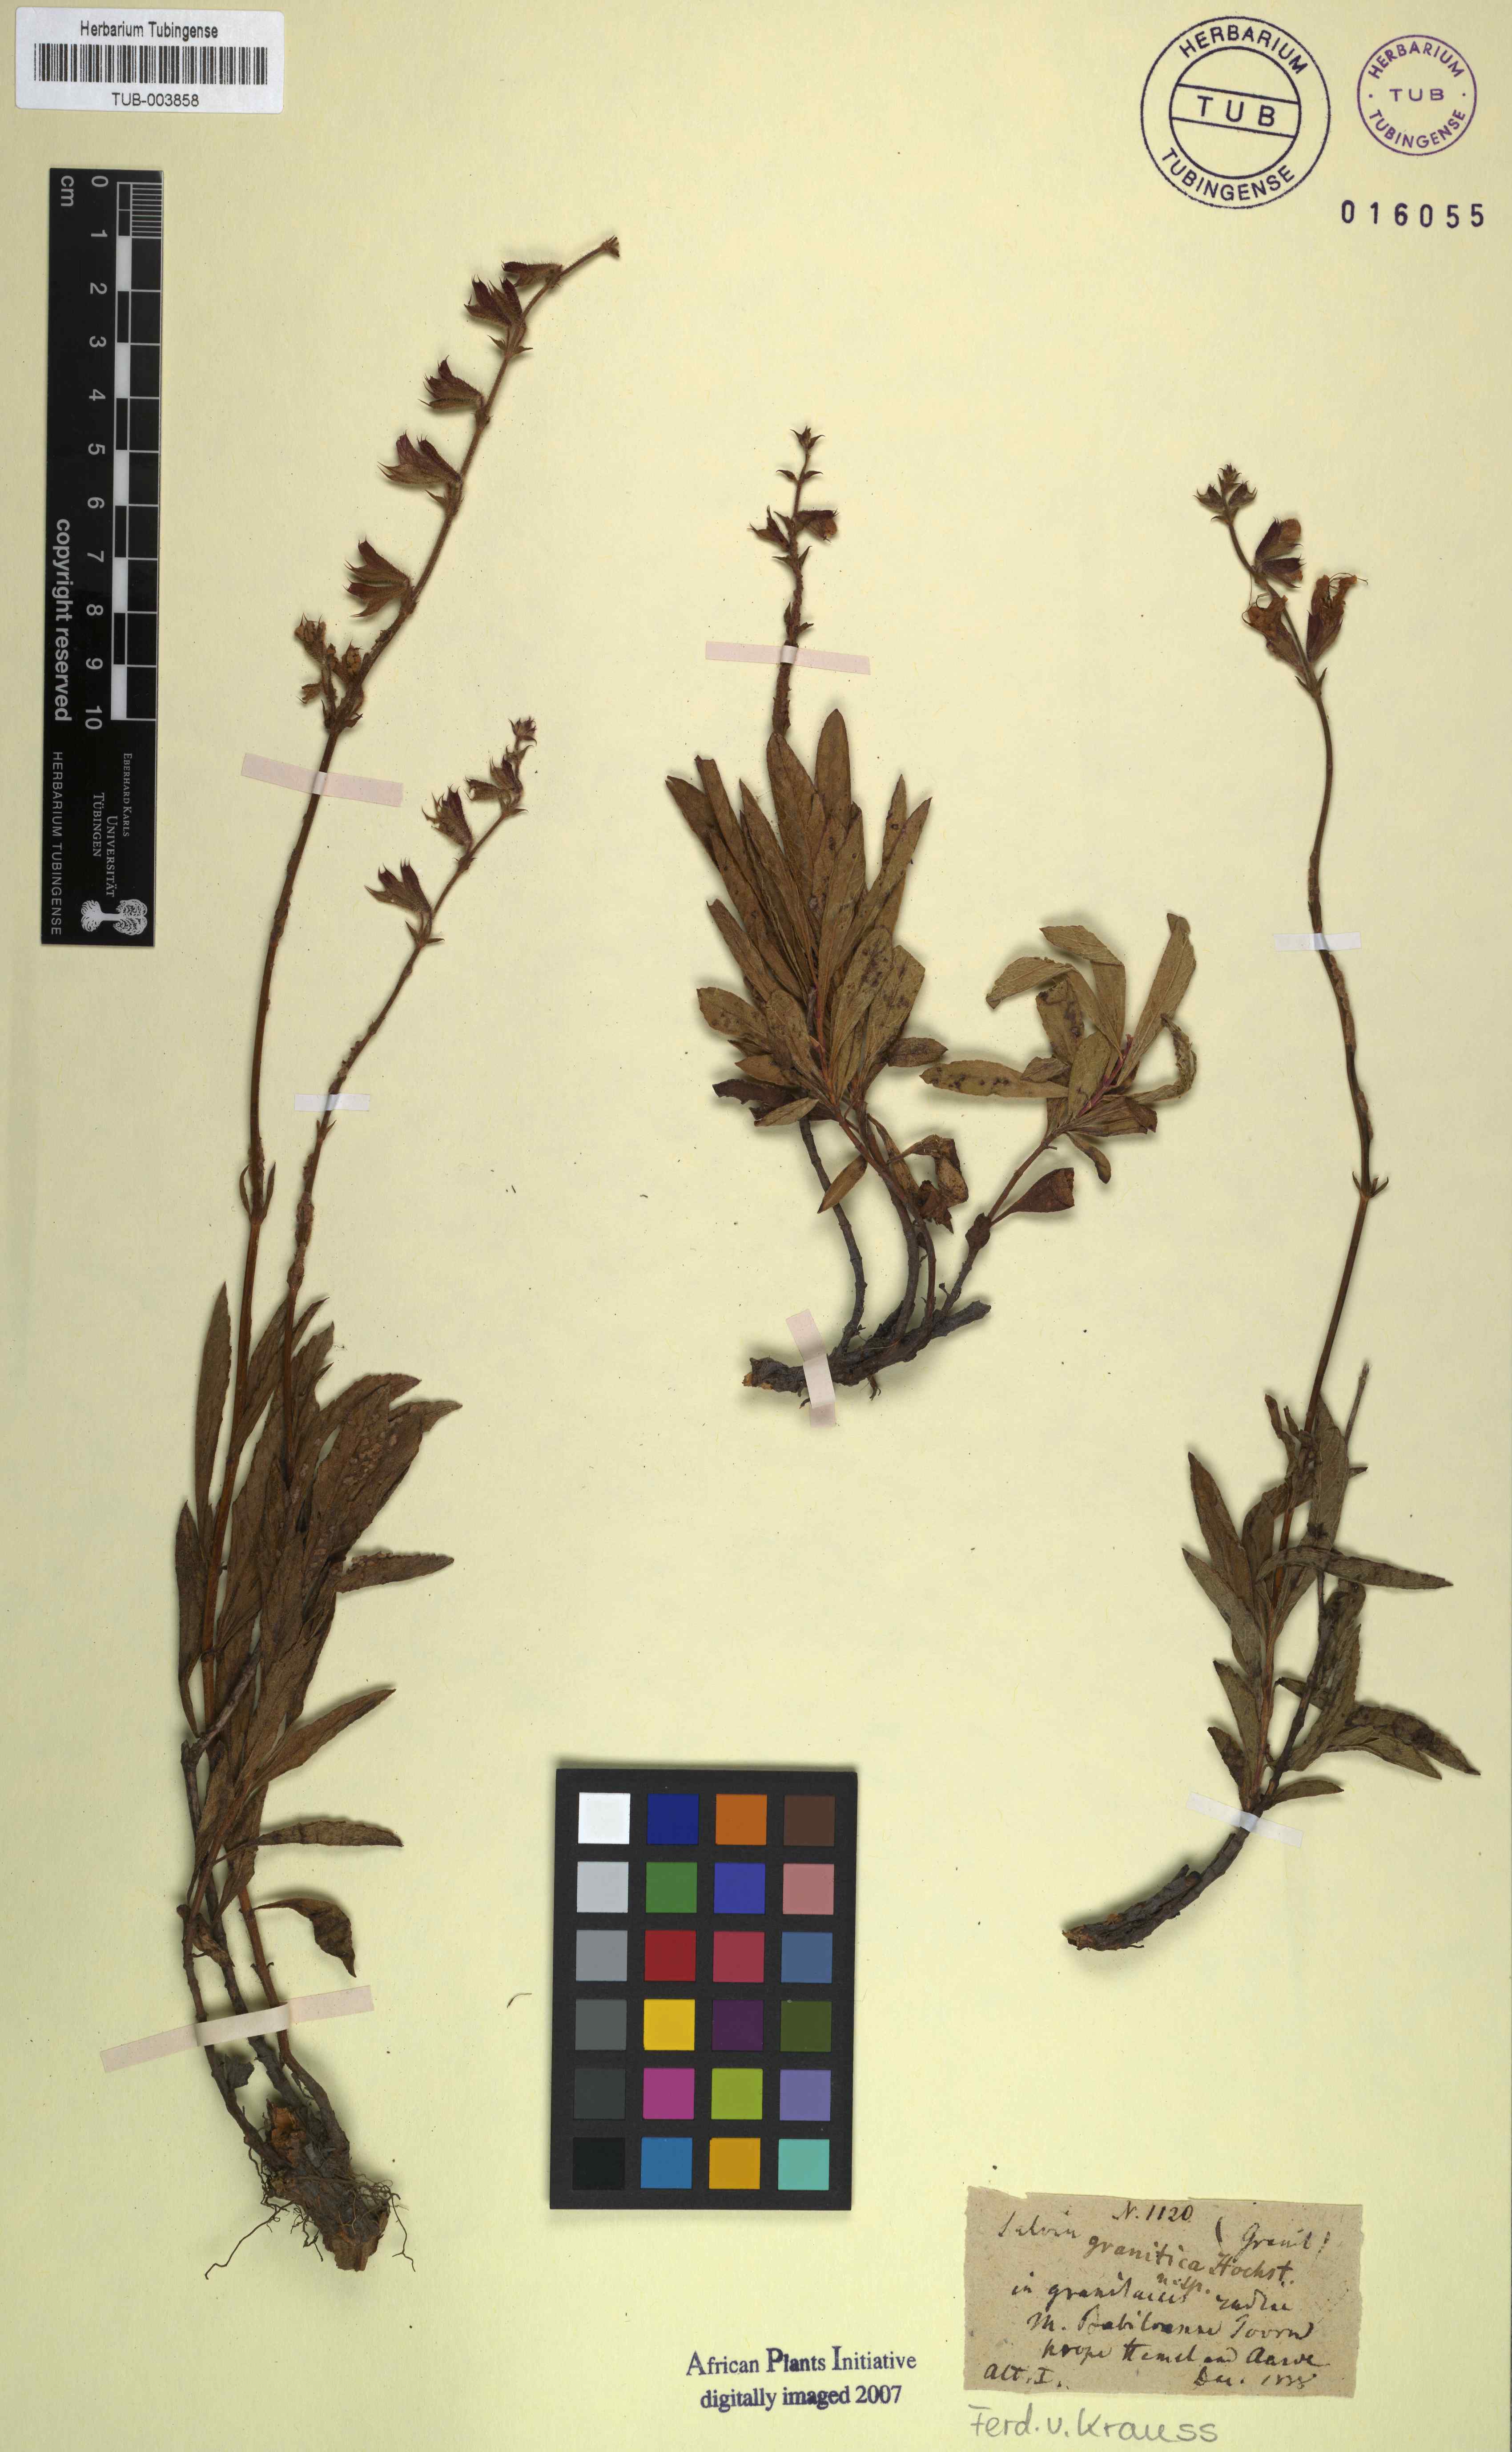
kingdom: Plantae
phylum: Tracheophyta
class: Magnoliopsida
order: Lamiales
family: Lamiaceae
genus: Salvia
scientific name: Salvia granitica
